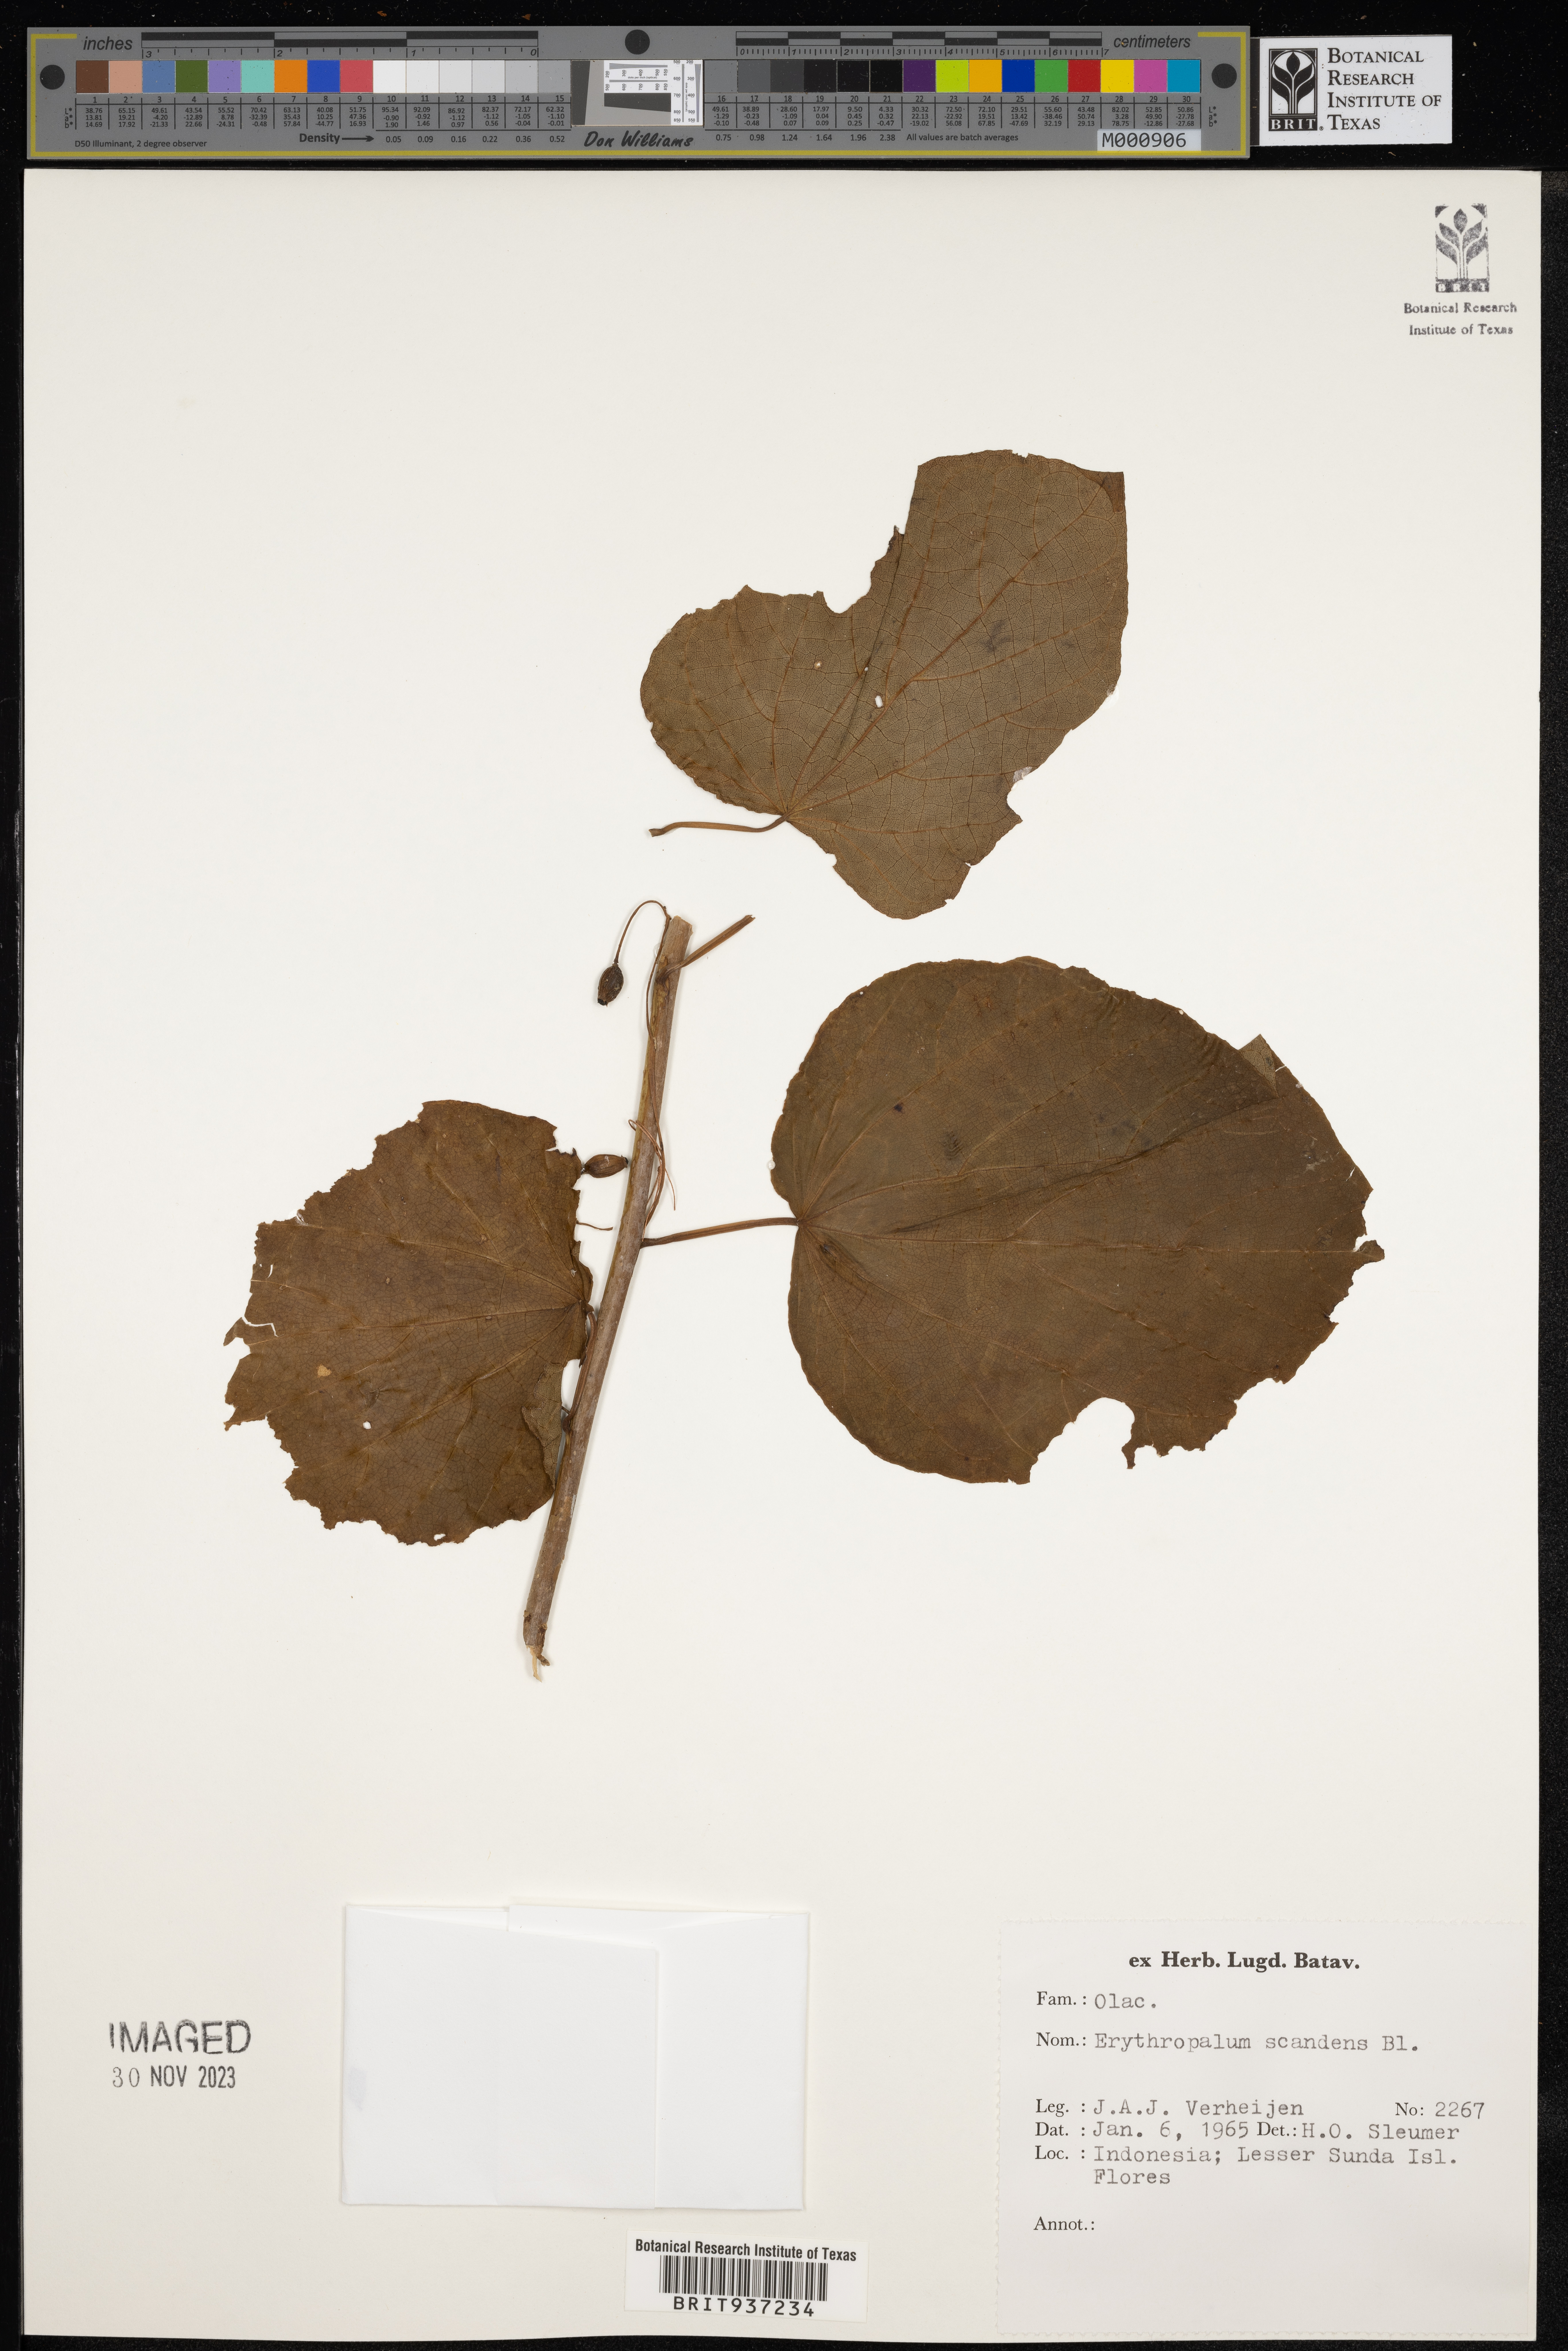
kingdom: Plantae
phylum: Tracheophyta
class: Magnoliopsida
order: Santalales
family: Erythropalaceae
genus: Erythropalum
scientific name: Erythropalum scandens
